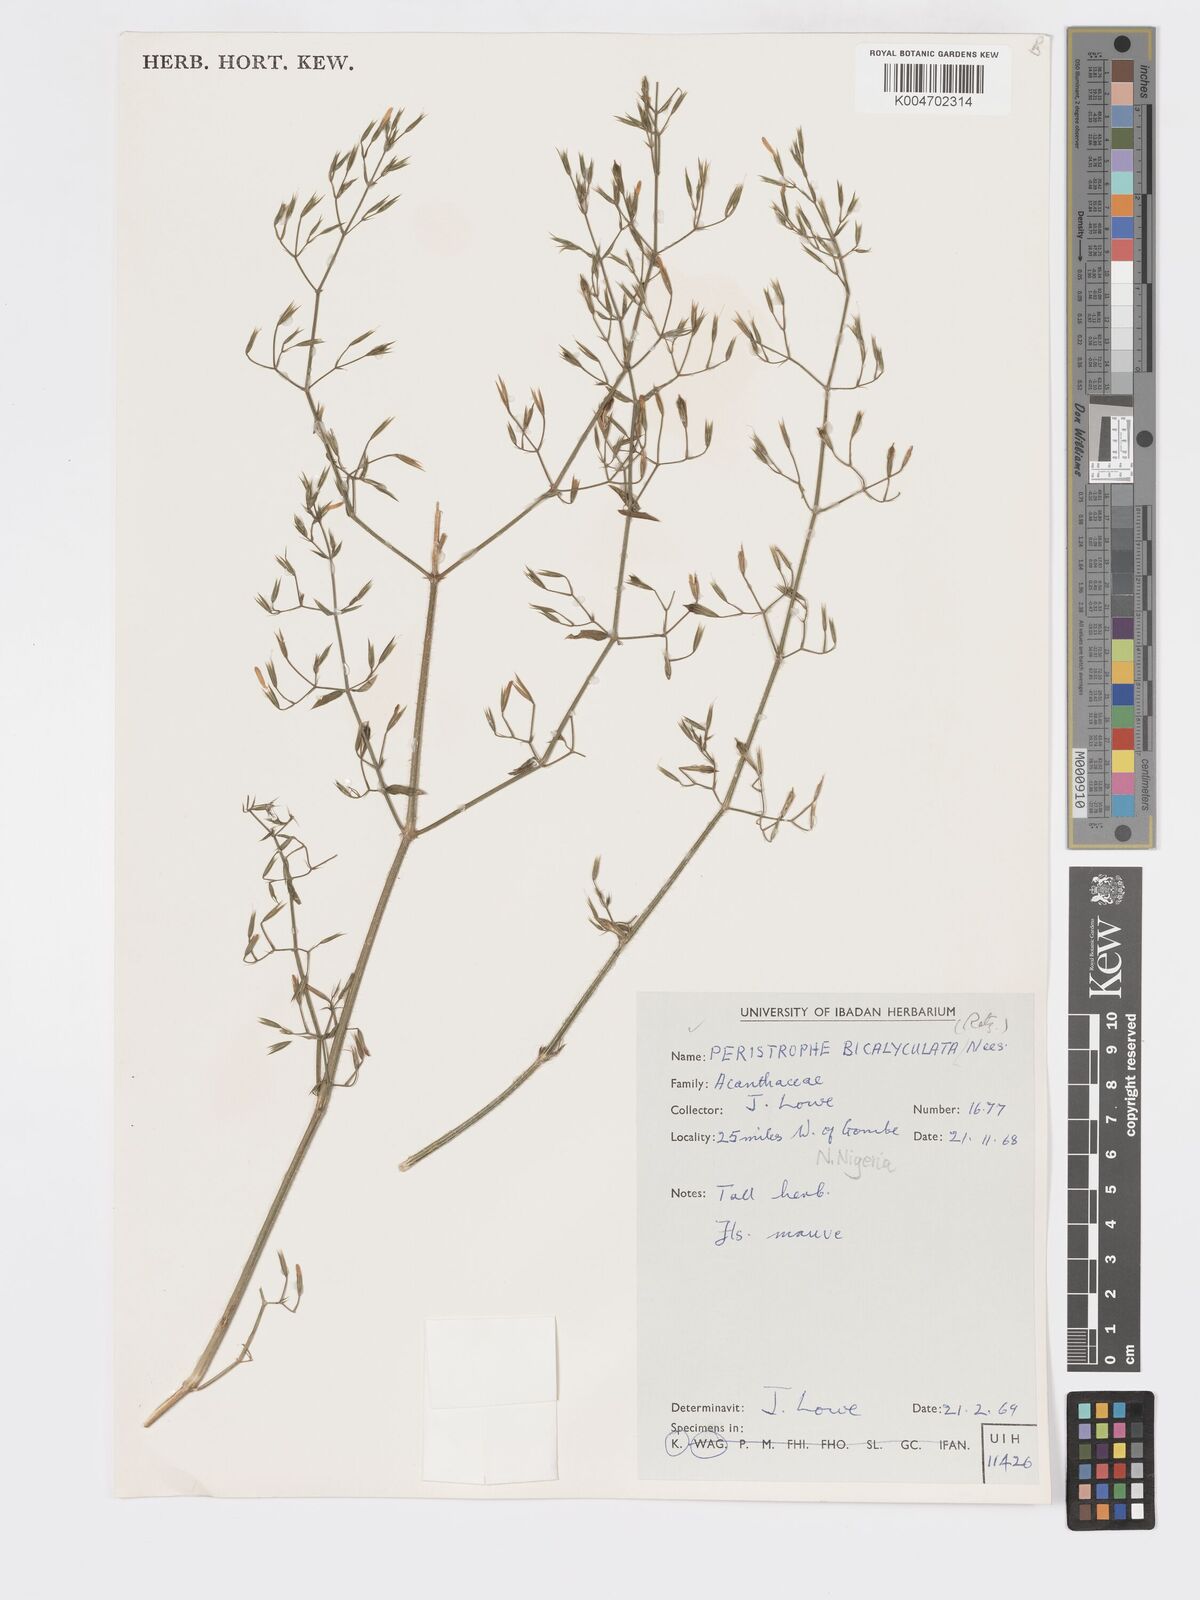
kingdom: Plantae
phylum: Tracheophyta
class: Magnoliopsida
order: Lamiales
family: Acanthaceae
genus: Dicliptera
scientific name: Dicliptera paniculata
